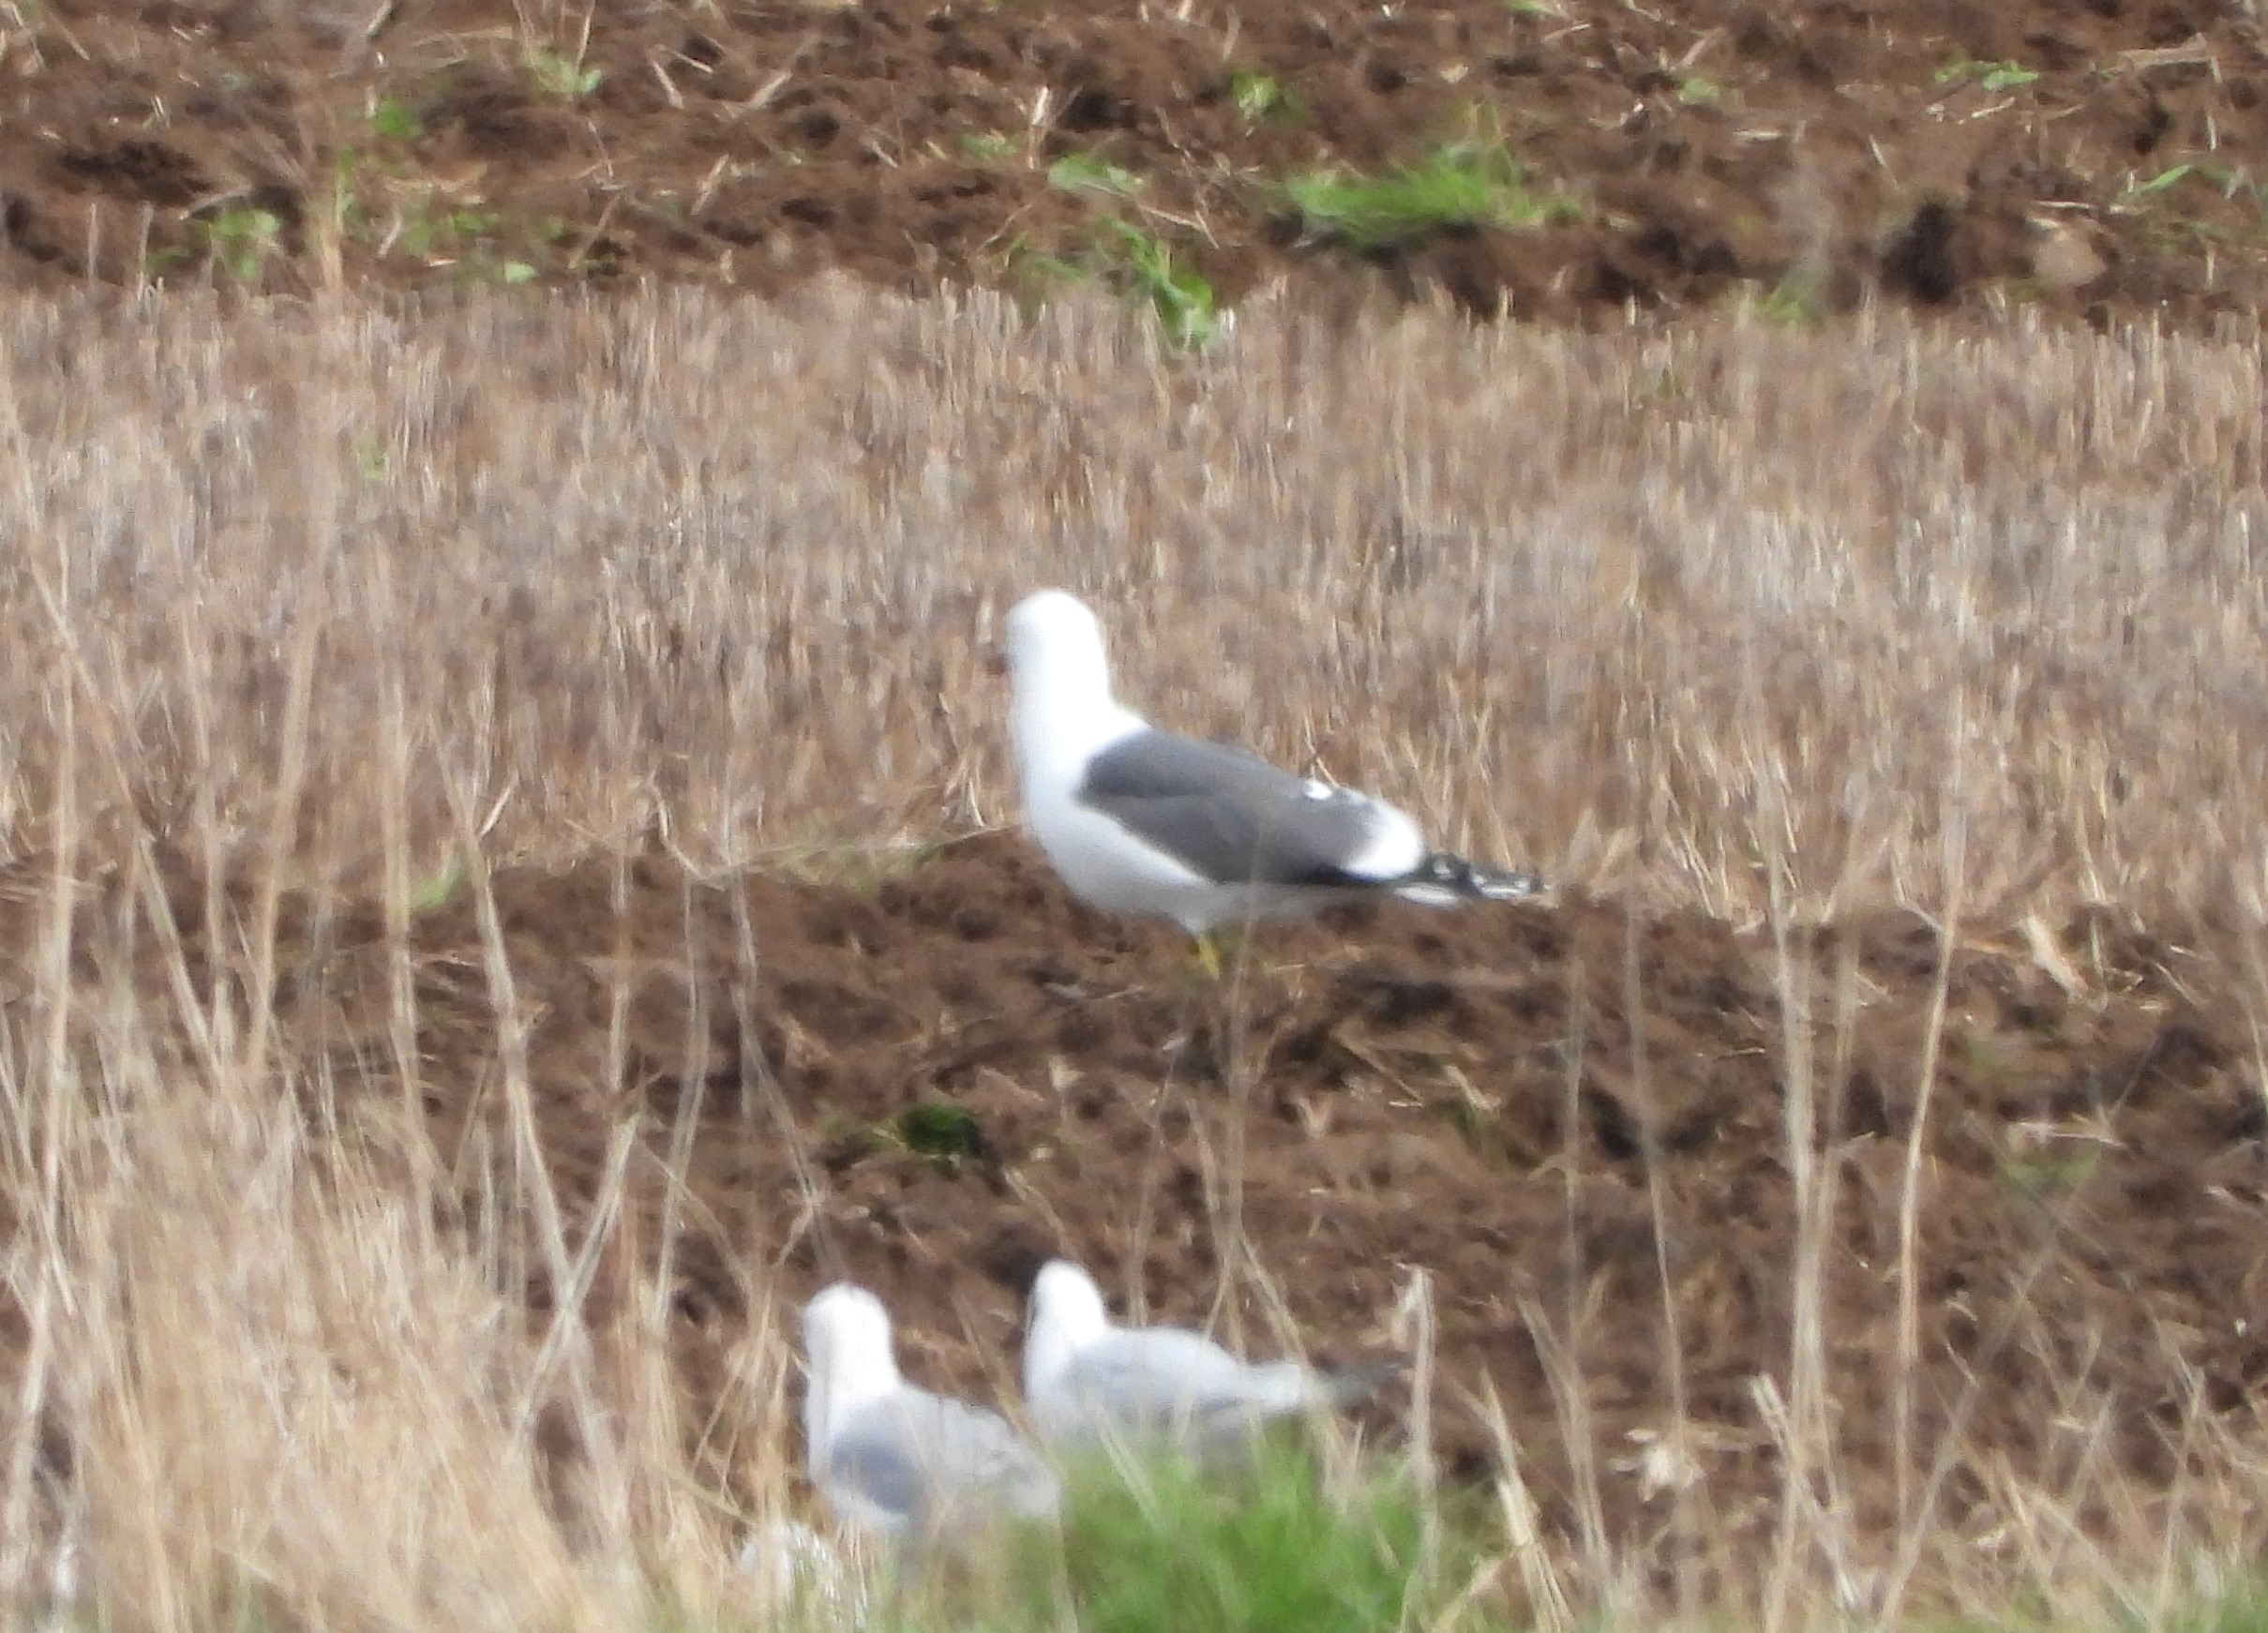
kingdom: Animalia
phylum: Chordata
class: Aves
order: Charadriiformes
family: Laridae
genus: Larus
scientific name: Larus fuscus
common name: Sildemåge
